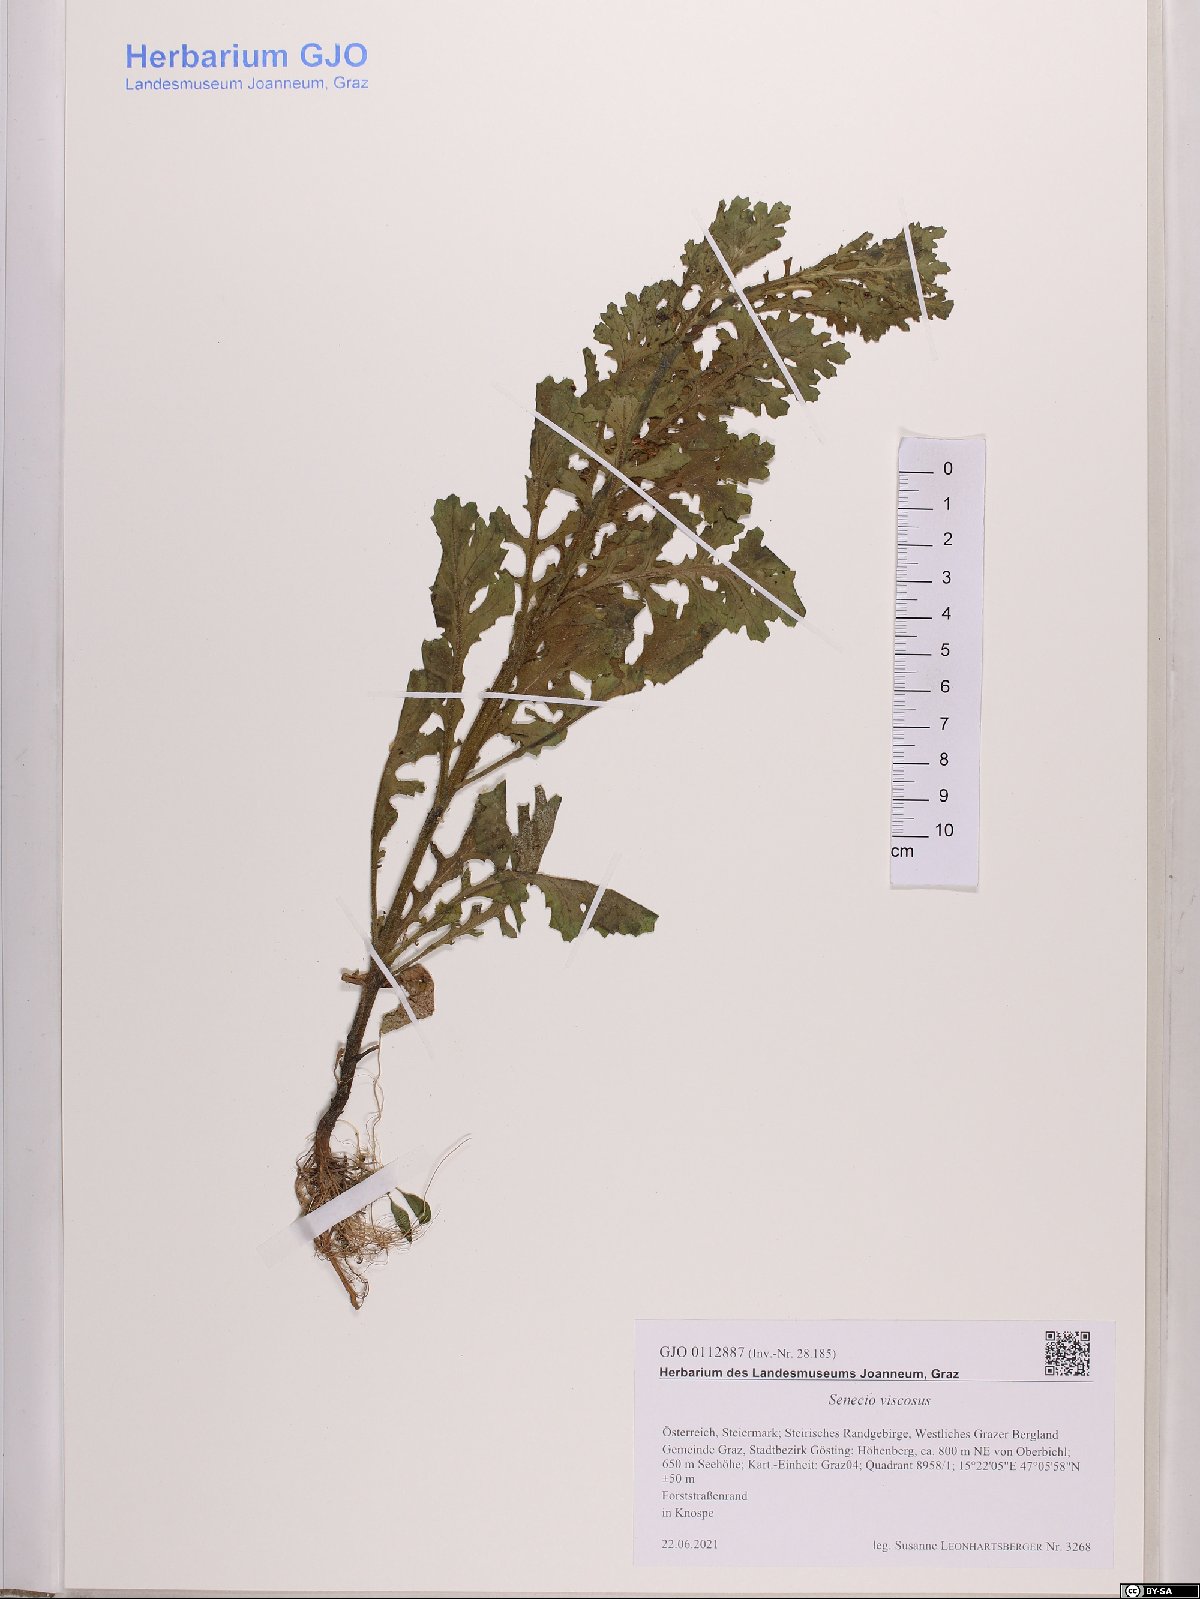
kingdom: Plantae
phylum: Tracheophyta
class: Magnoliopsida
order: Asterales
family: Asteraceae
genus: Senecio
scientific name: Senecio viscosus
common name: Sticky groundsel
